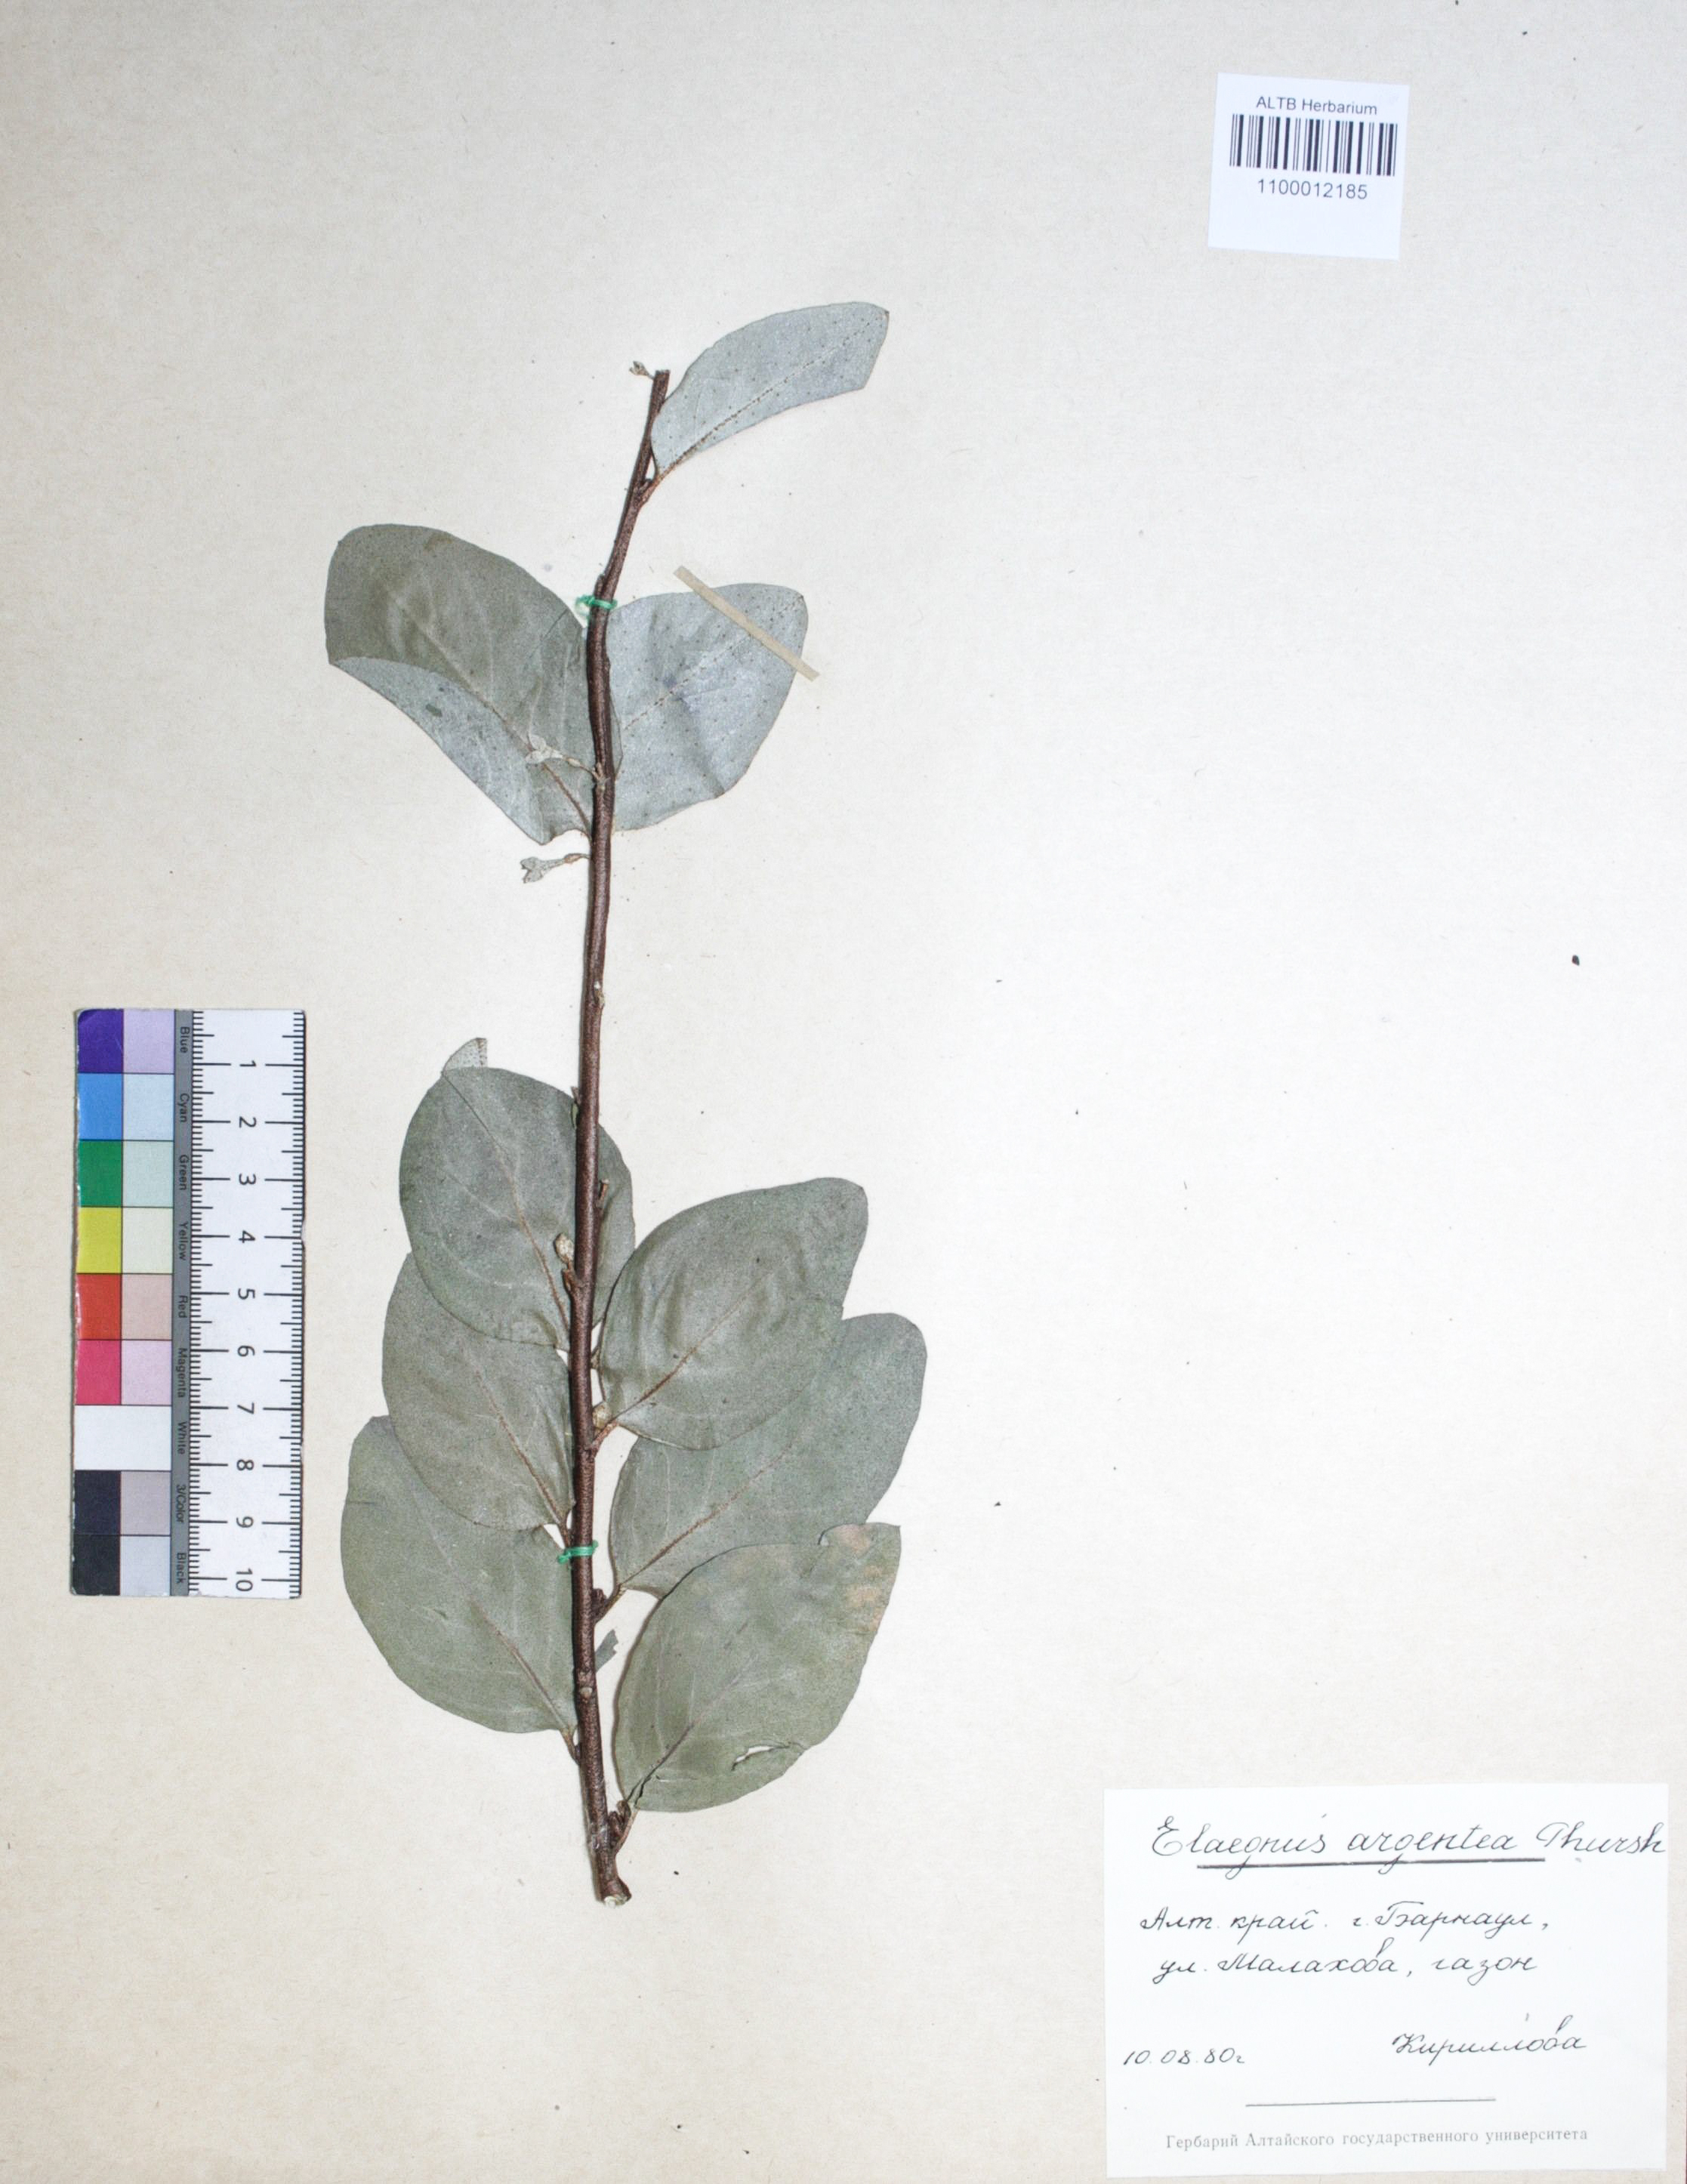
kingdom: Plantae
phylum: Tracheophyta
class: Magnoliopsida
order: Rosales
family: Elaeagnaceae
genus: Elaeagnus
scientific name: Elaeagnus commutata
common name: Silverberry
